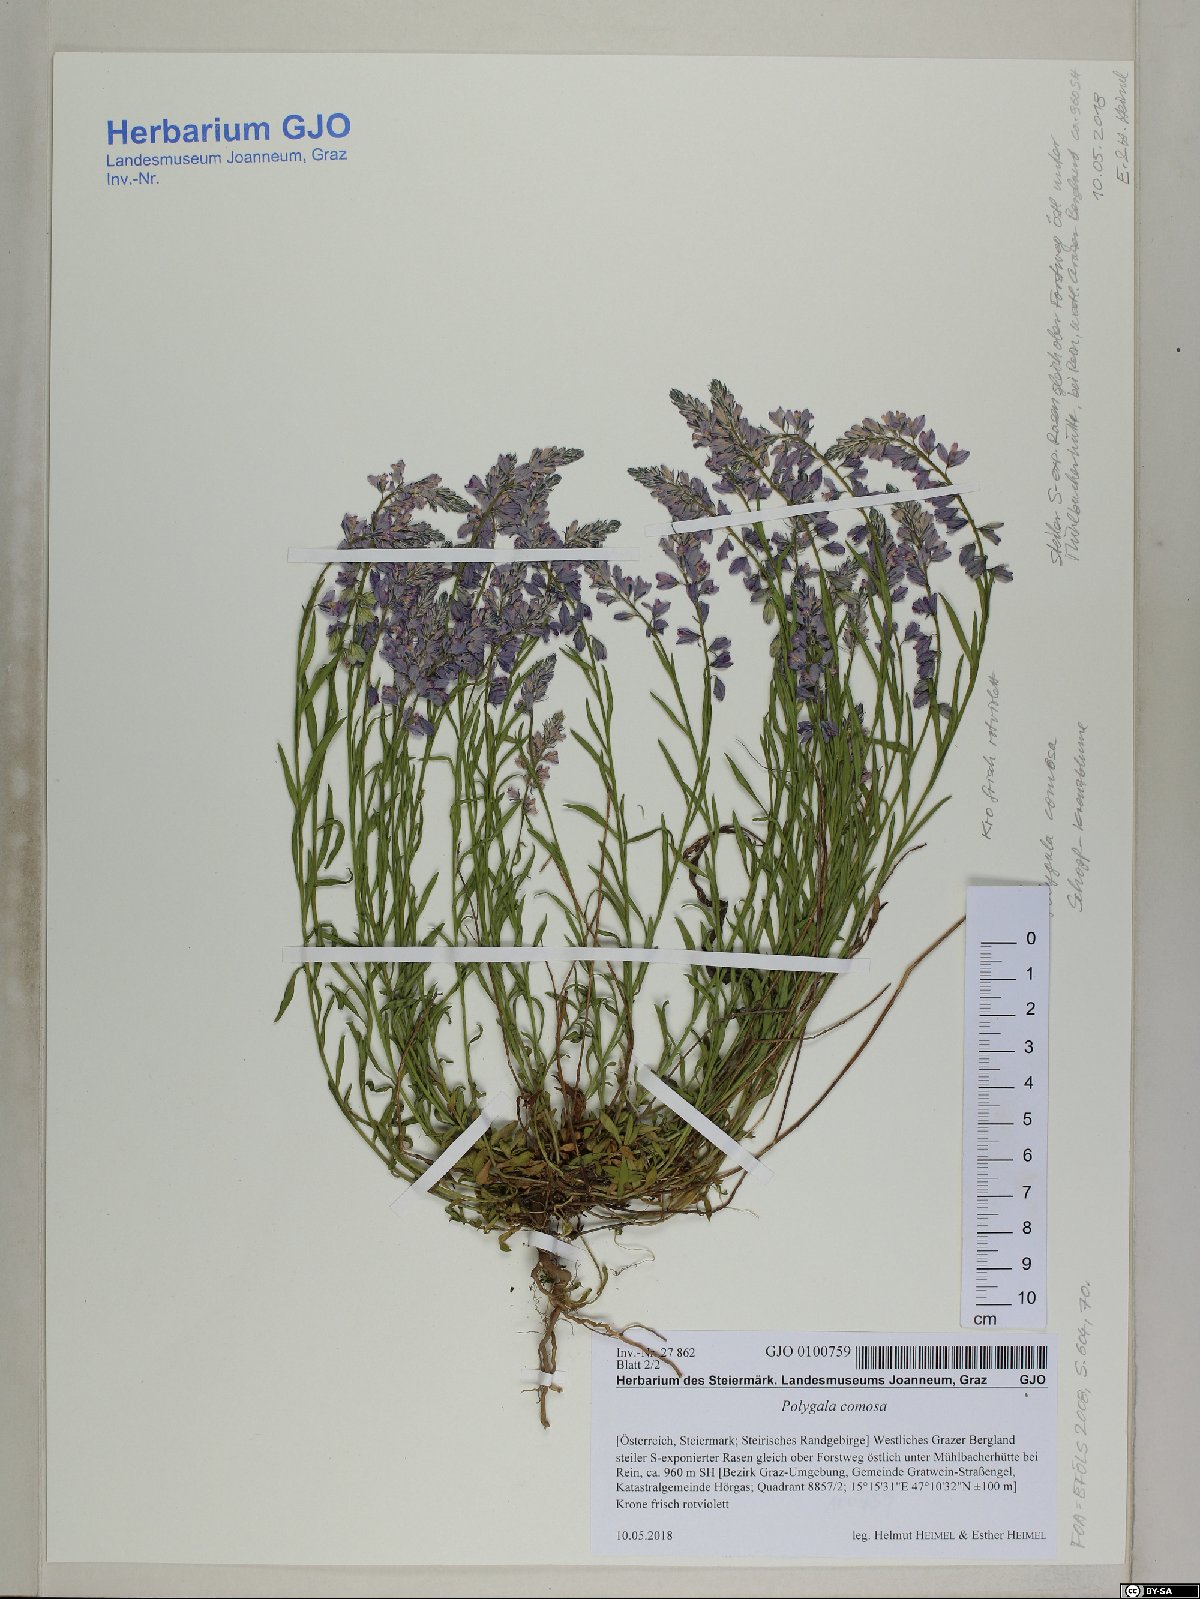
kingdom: Plantae
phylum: Tracheophyta
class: Magnoliopsida
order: Fabales
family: Polygalaceae
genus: Polygala
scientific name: Polygala comosa
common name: Tufted milkwort
